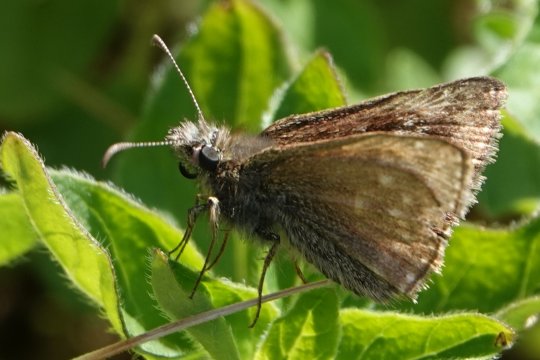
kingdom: Animalia
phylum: Arthropoda
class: Insecta
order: Lepidoptera
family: Hesperiidae
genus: Erynnis
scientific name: Erynnis tages
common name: Dingy Skipper
